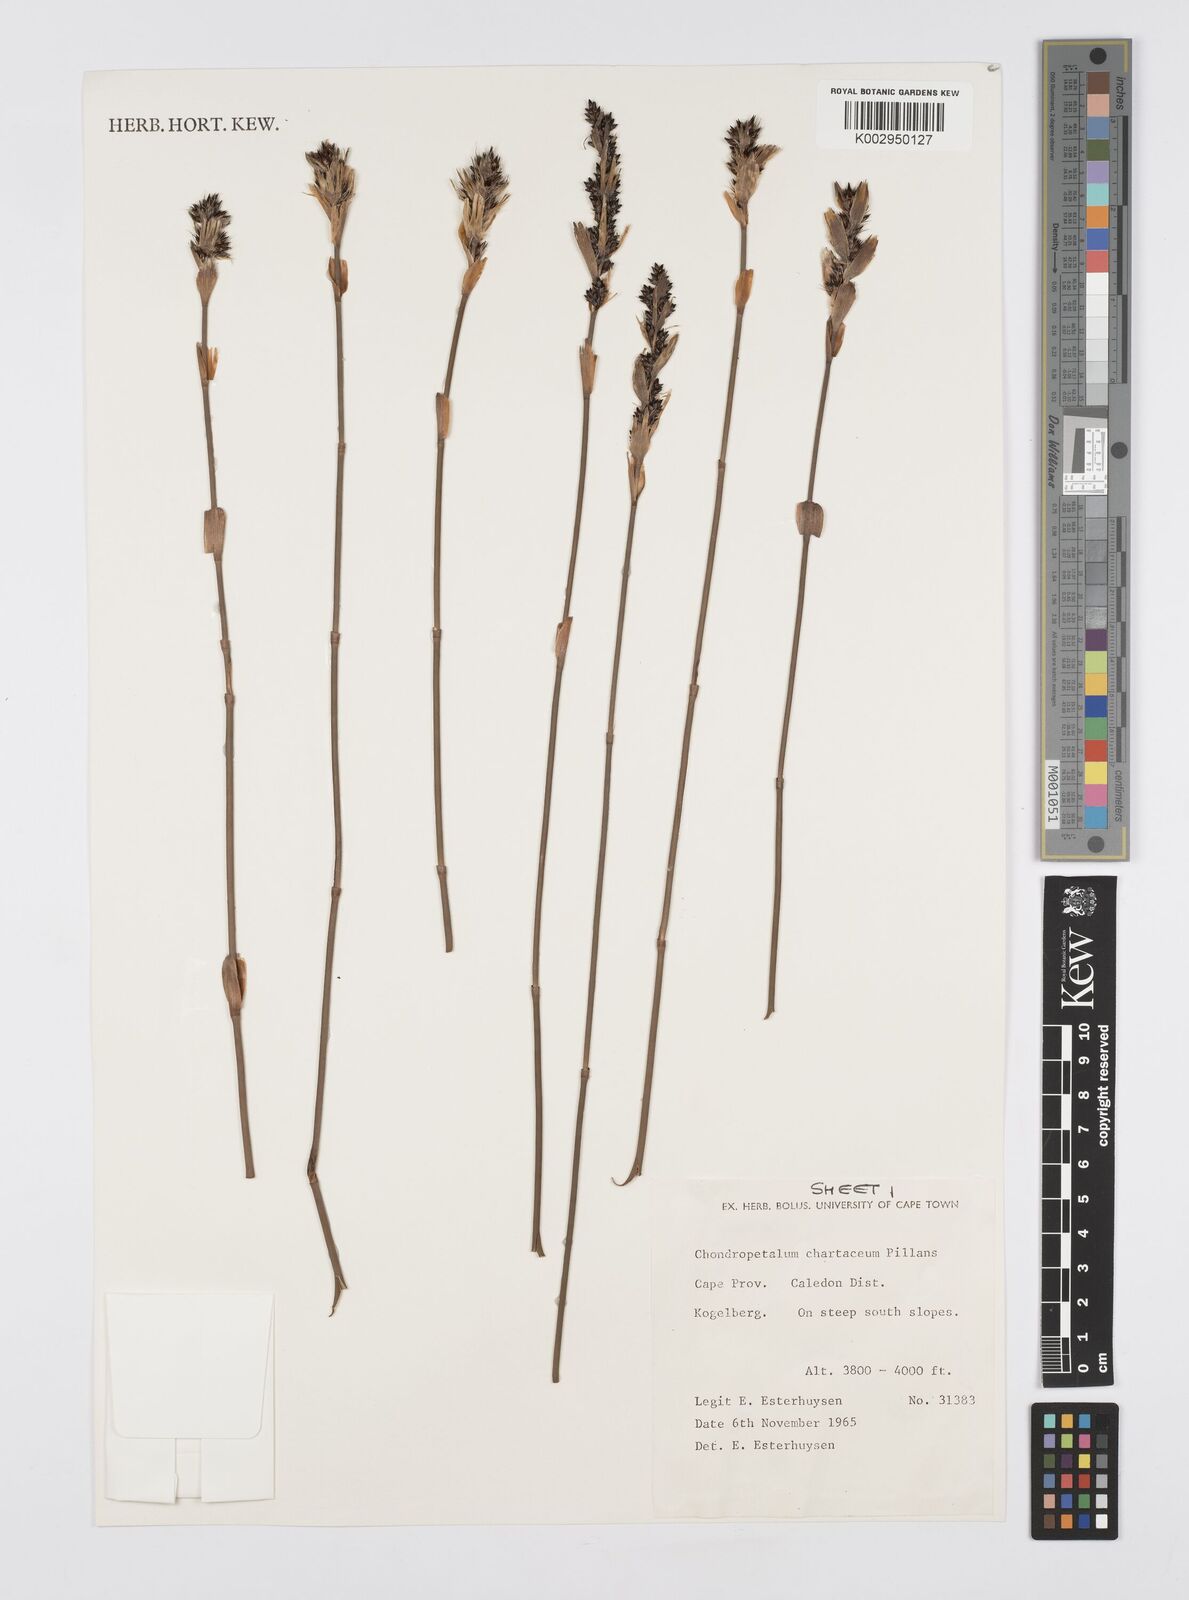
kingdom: Plantae
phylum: Tracheophyta
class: Liliopsida
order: Poales
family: Restionaceae
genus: Askidiosperma
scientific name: Askidiosperma chartaceum
